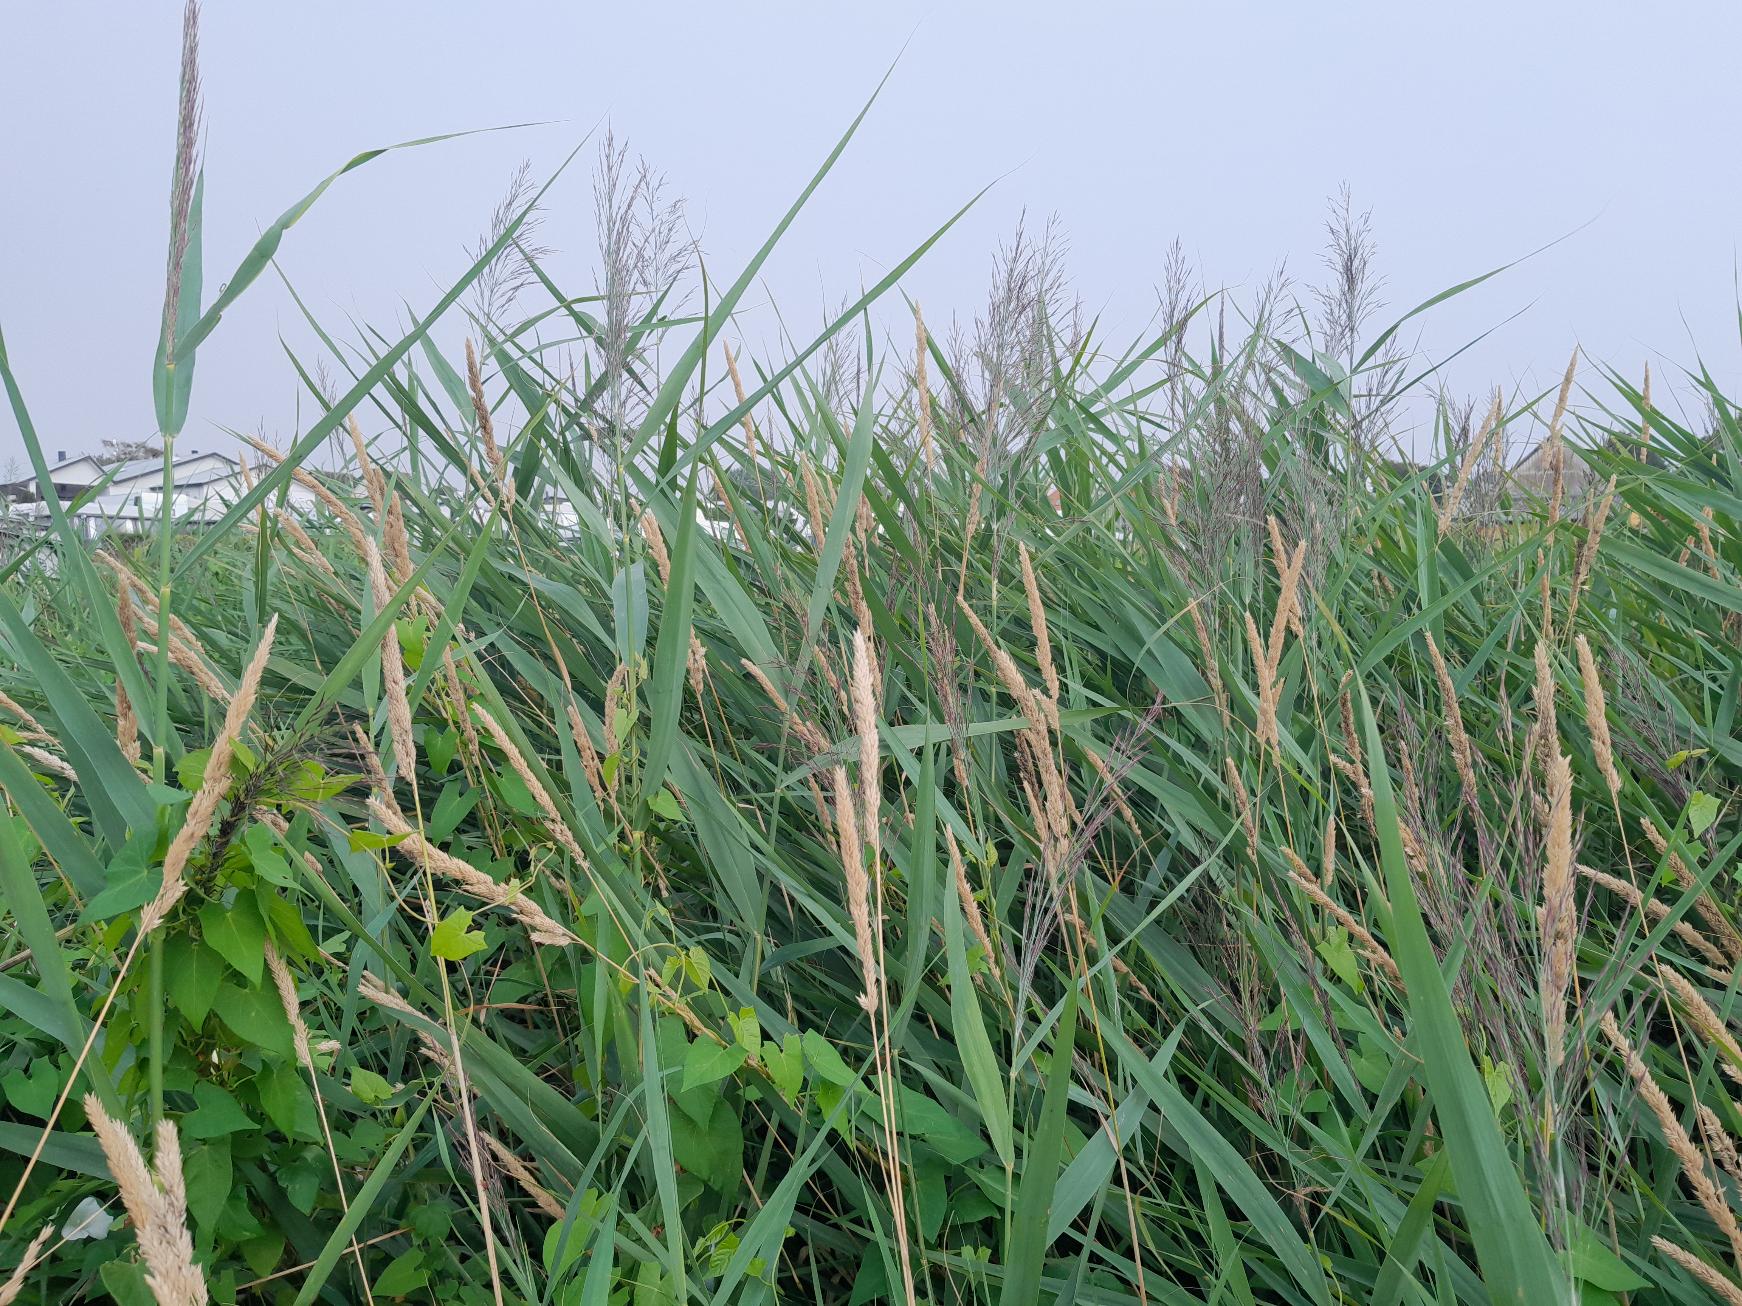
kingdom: Plantae
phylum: Tracheophyta
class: Liliopsida
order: Poales
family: Poaceae
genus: Phalaris
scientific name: Phalaris arundinacea
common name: Rørgræs
